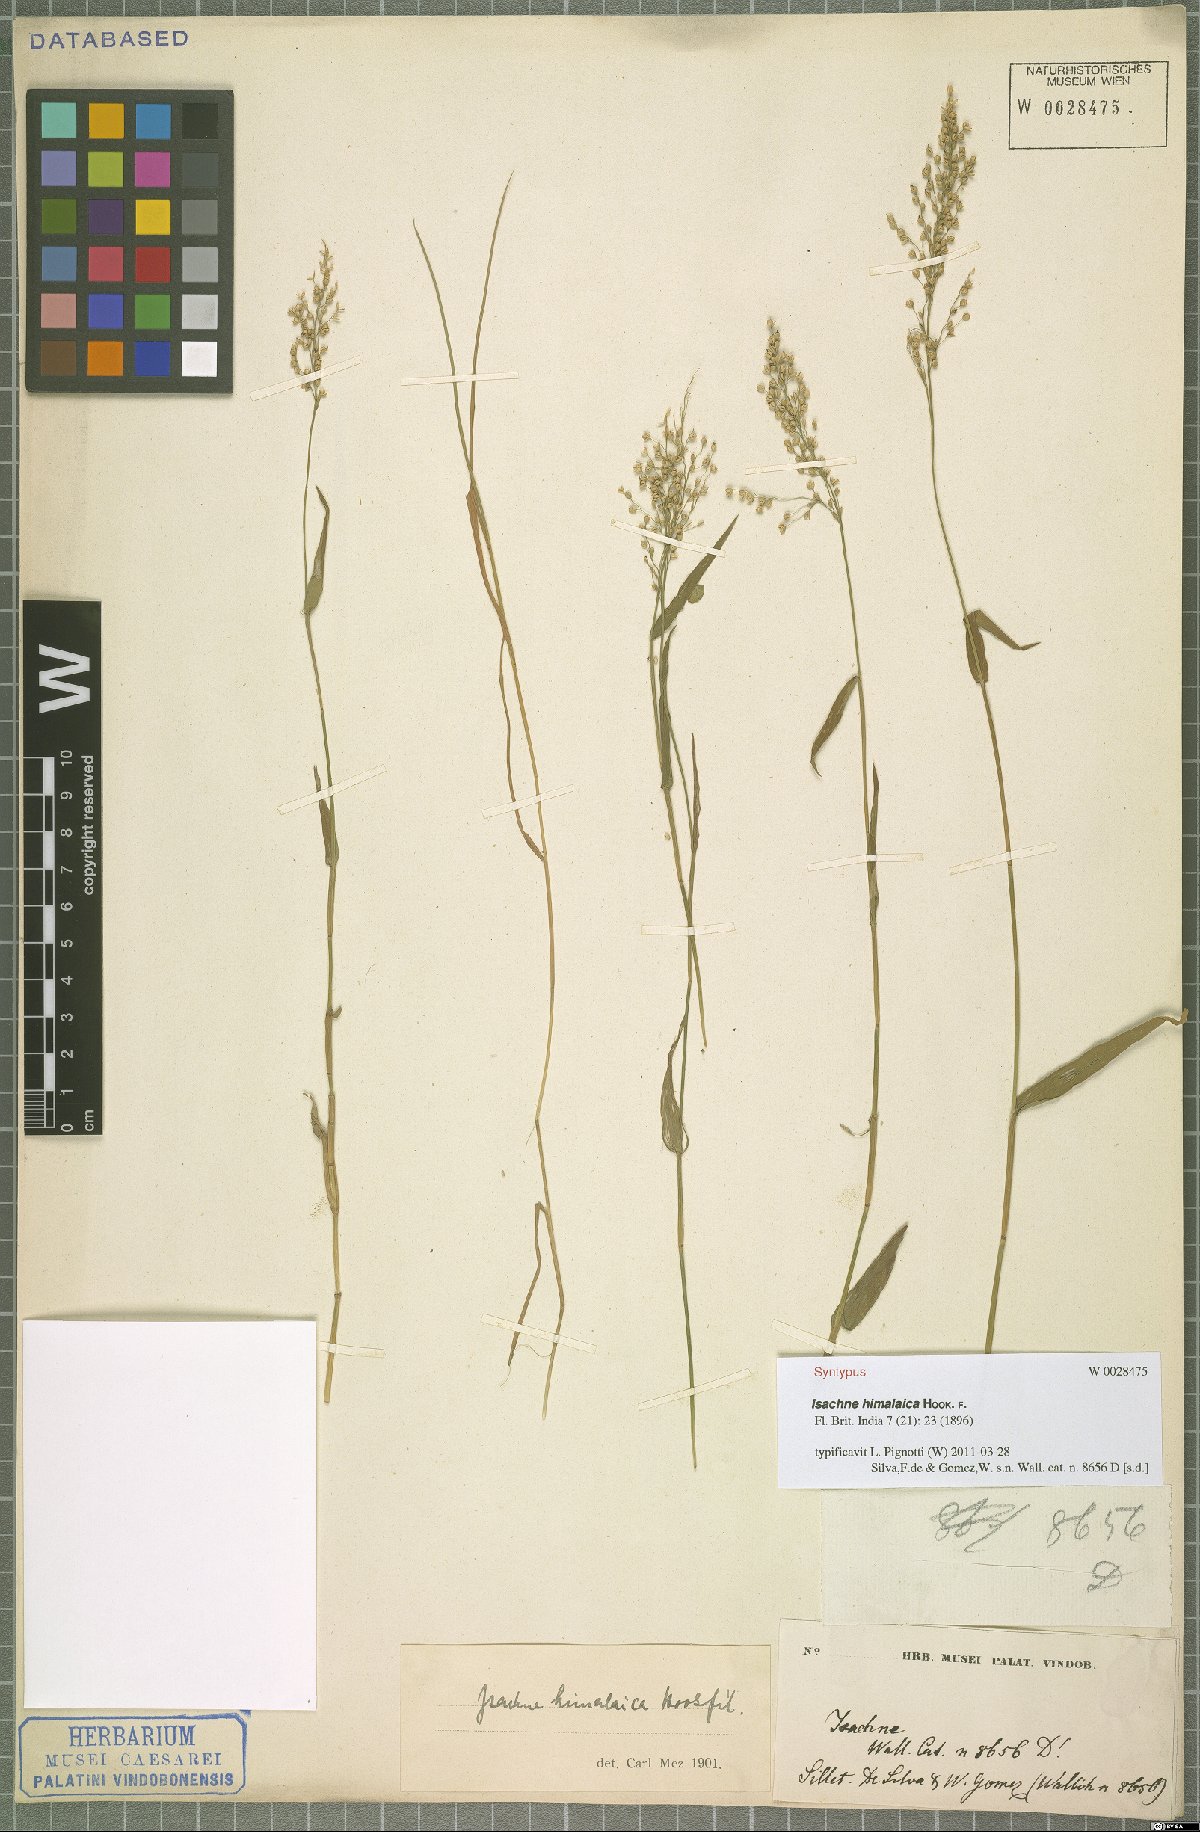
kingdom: Plantae
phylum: Tracheophyta
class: Liliopsida
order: Poales
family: Poaceae
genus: Isachne
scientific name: Isachne himalaica
